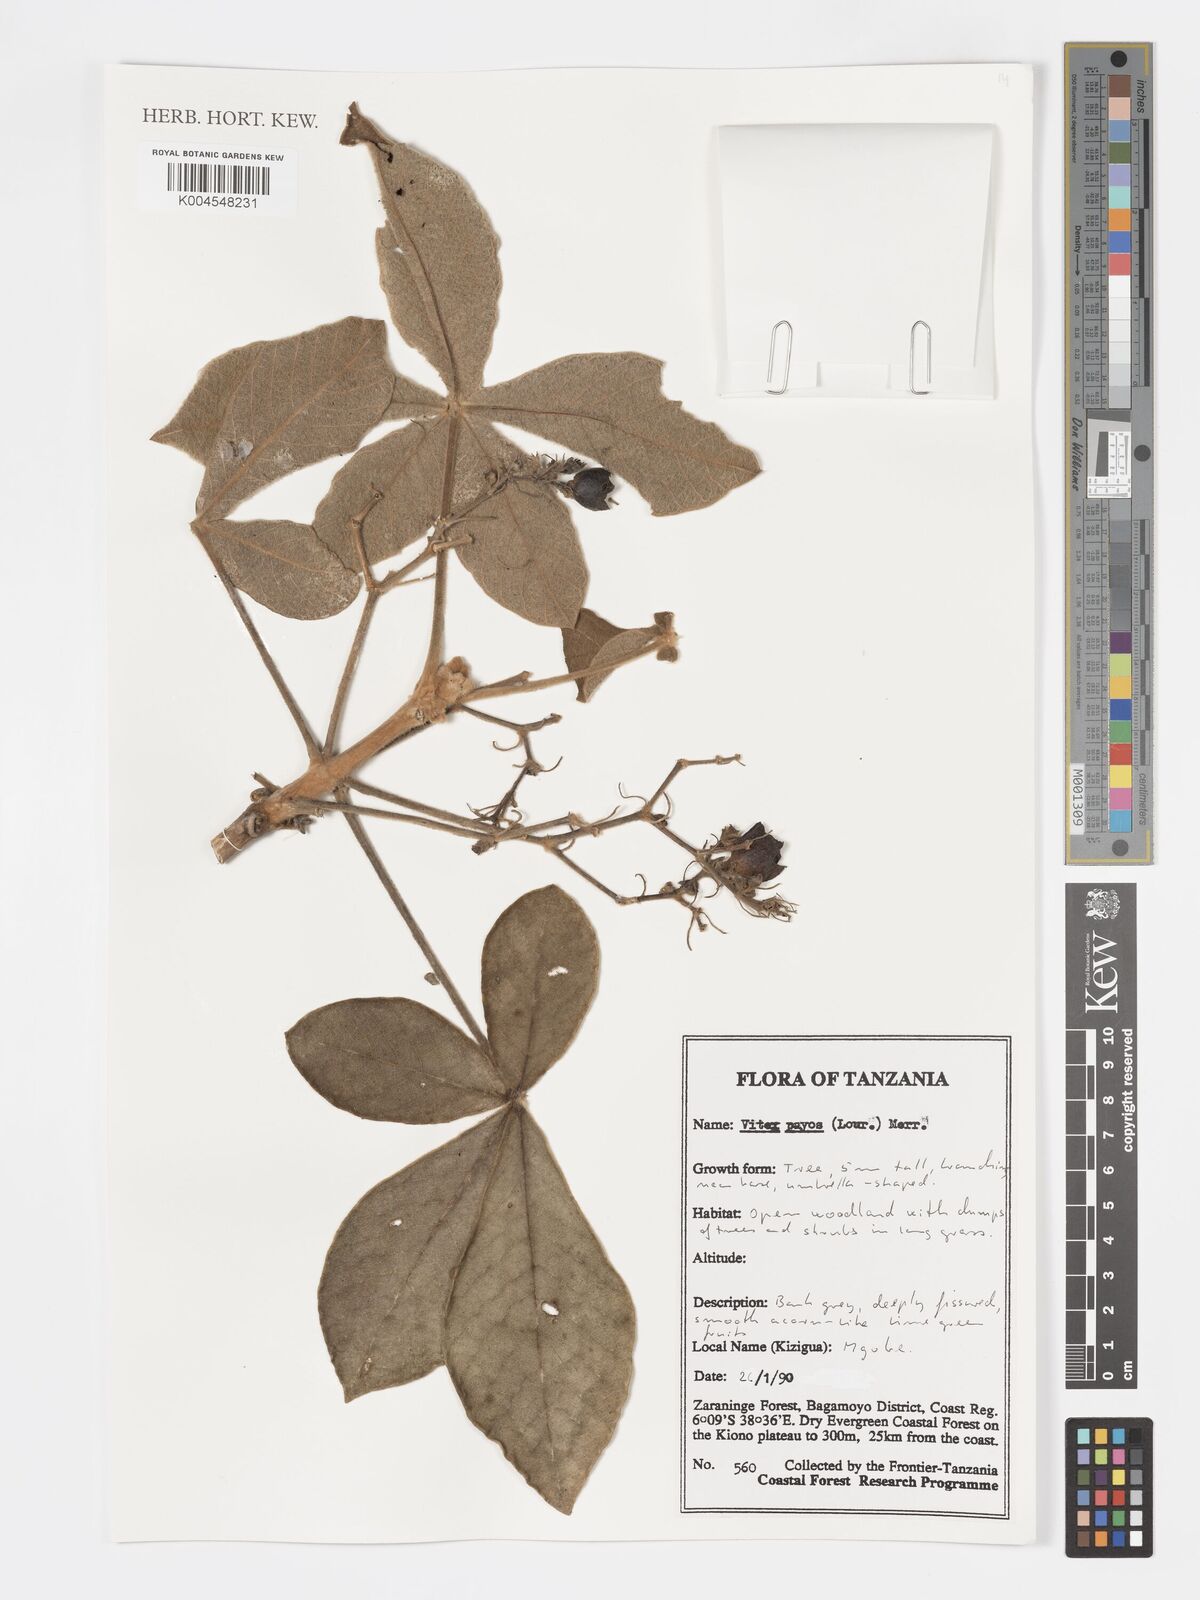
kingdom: Plantae
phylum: Tracheophyta
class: Magnoliopsida
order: Lamiales
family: Lamiaceae
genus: Vitex
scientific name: Vitex payos
